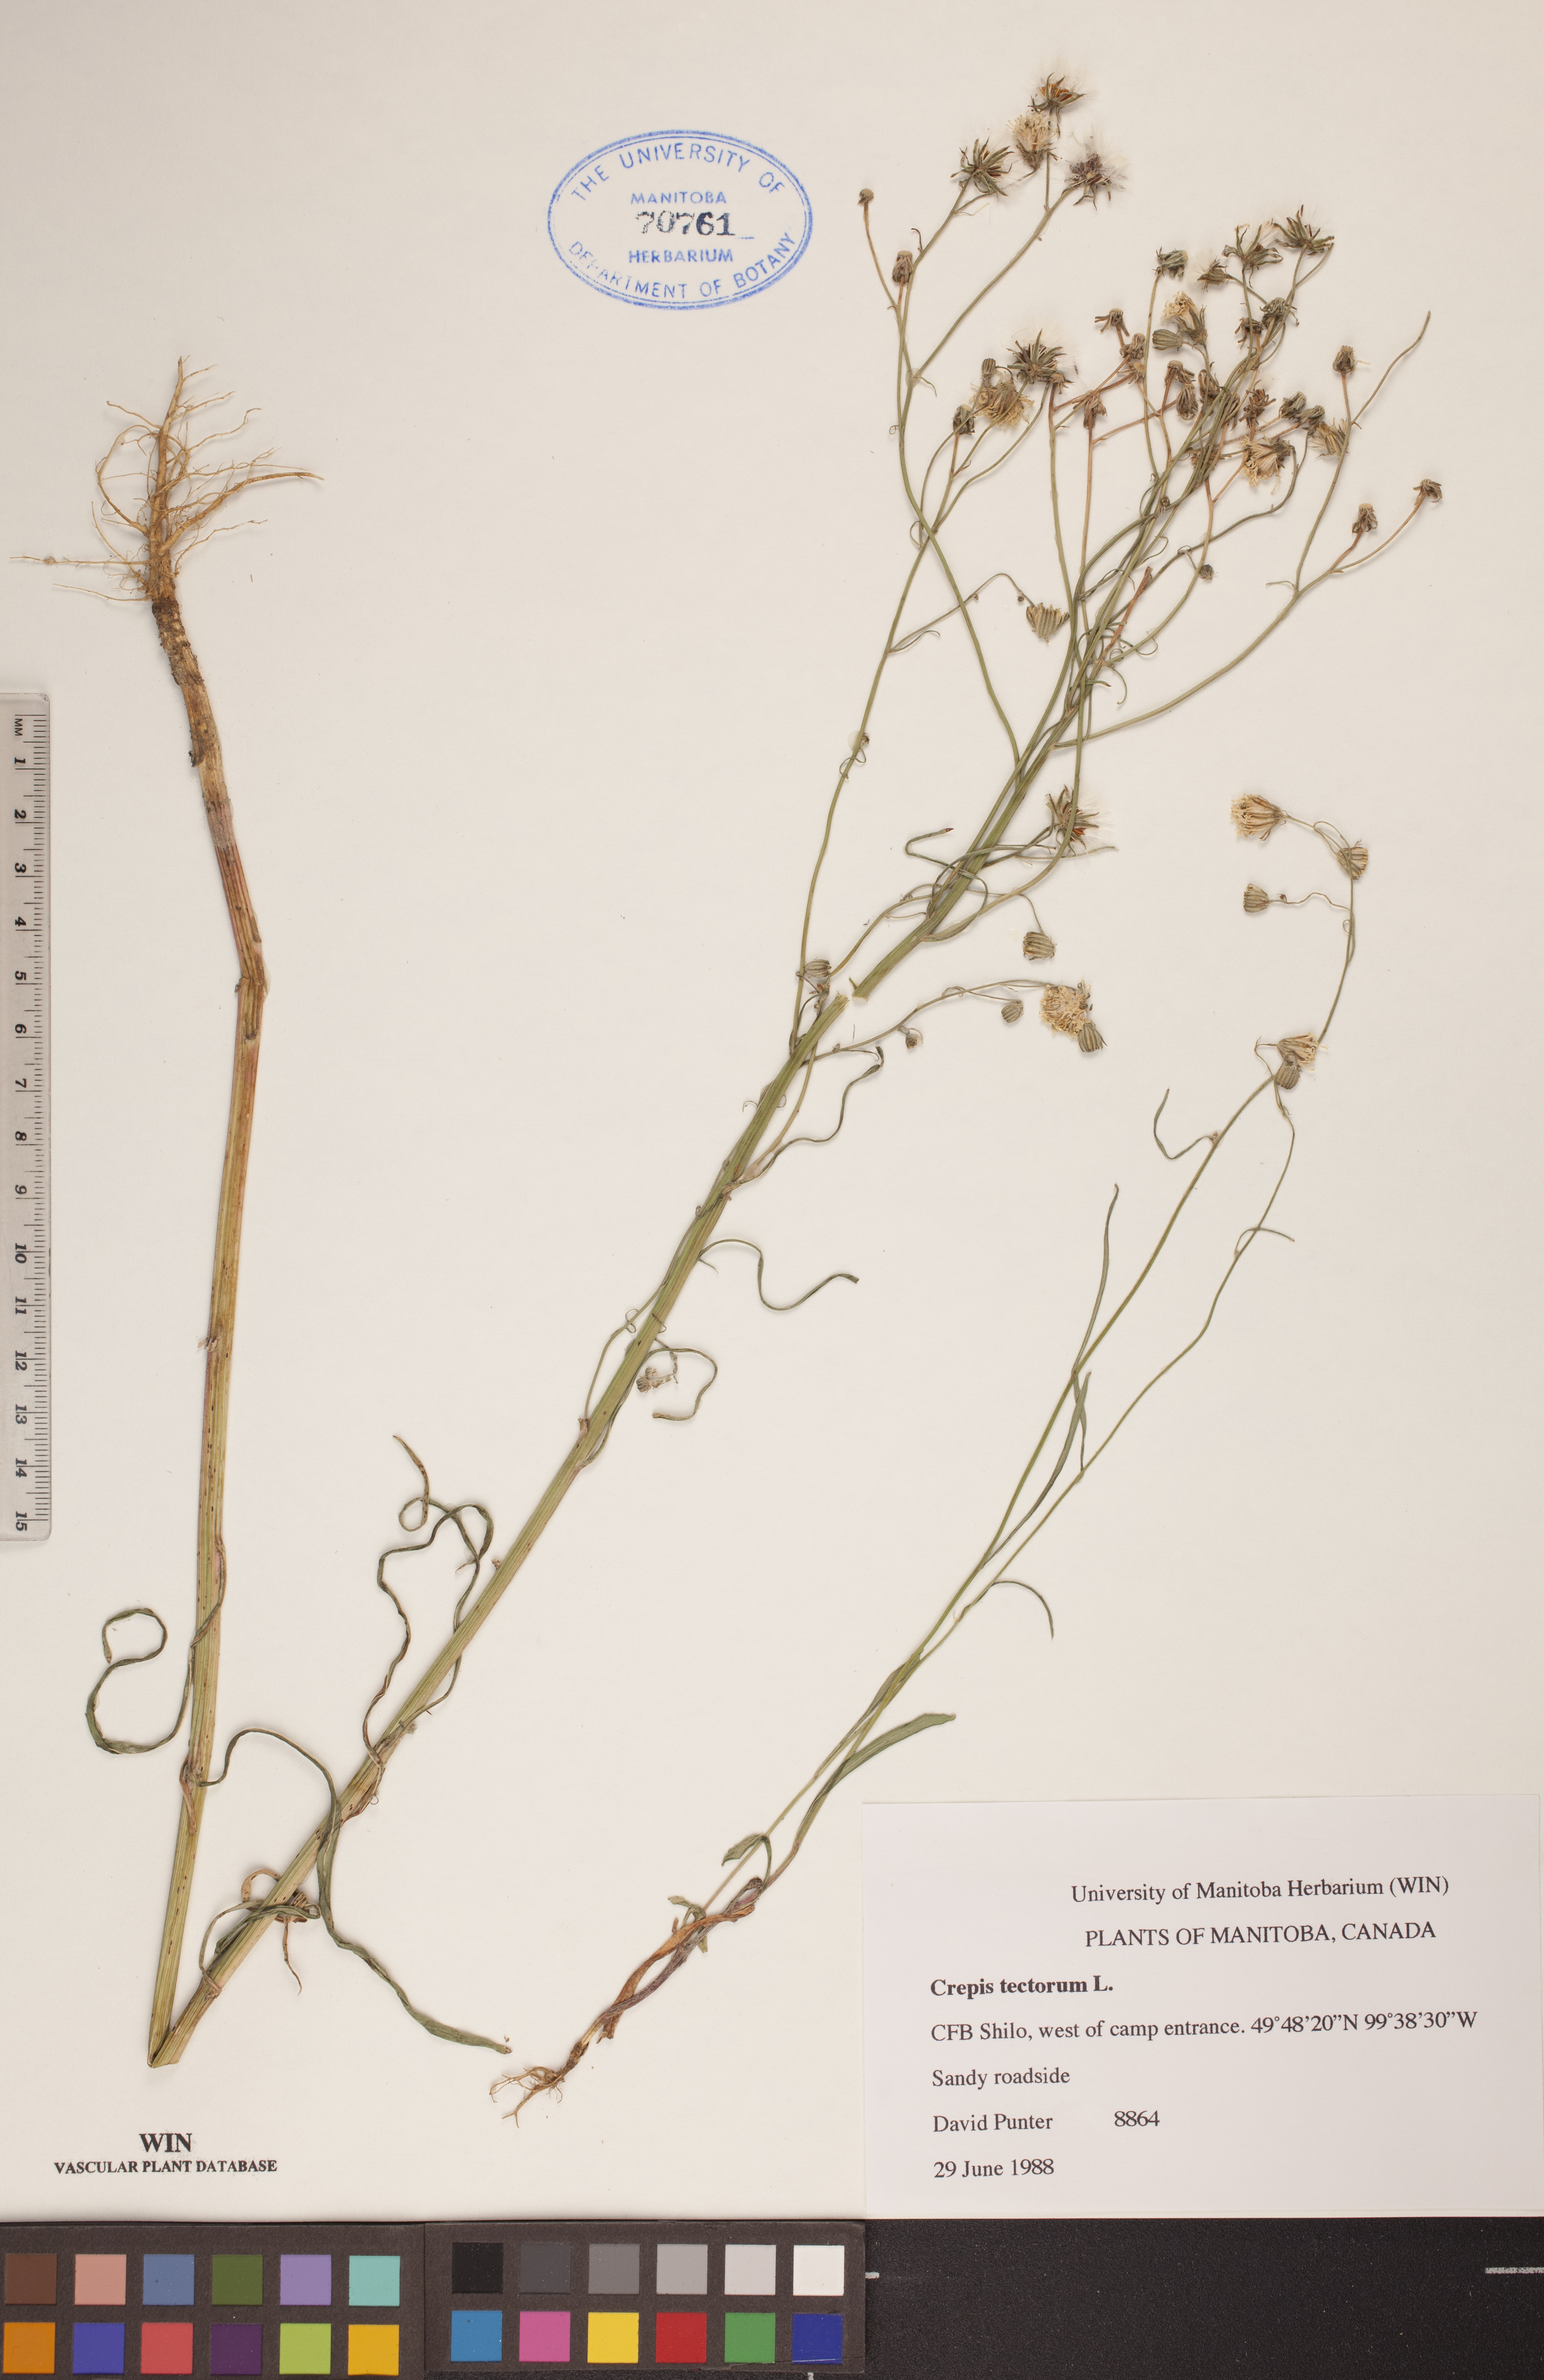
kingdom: Plantae
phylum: Tracheophyta
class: Magnoliopsida
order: Asterales
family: Asteraceae
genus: Crepis
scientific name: Crepis tectorum
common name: Narrow-leaved hawk's-beard
